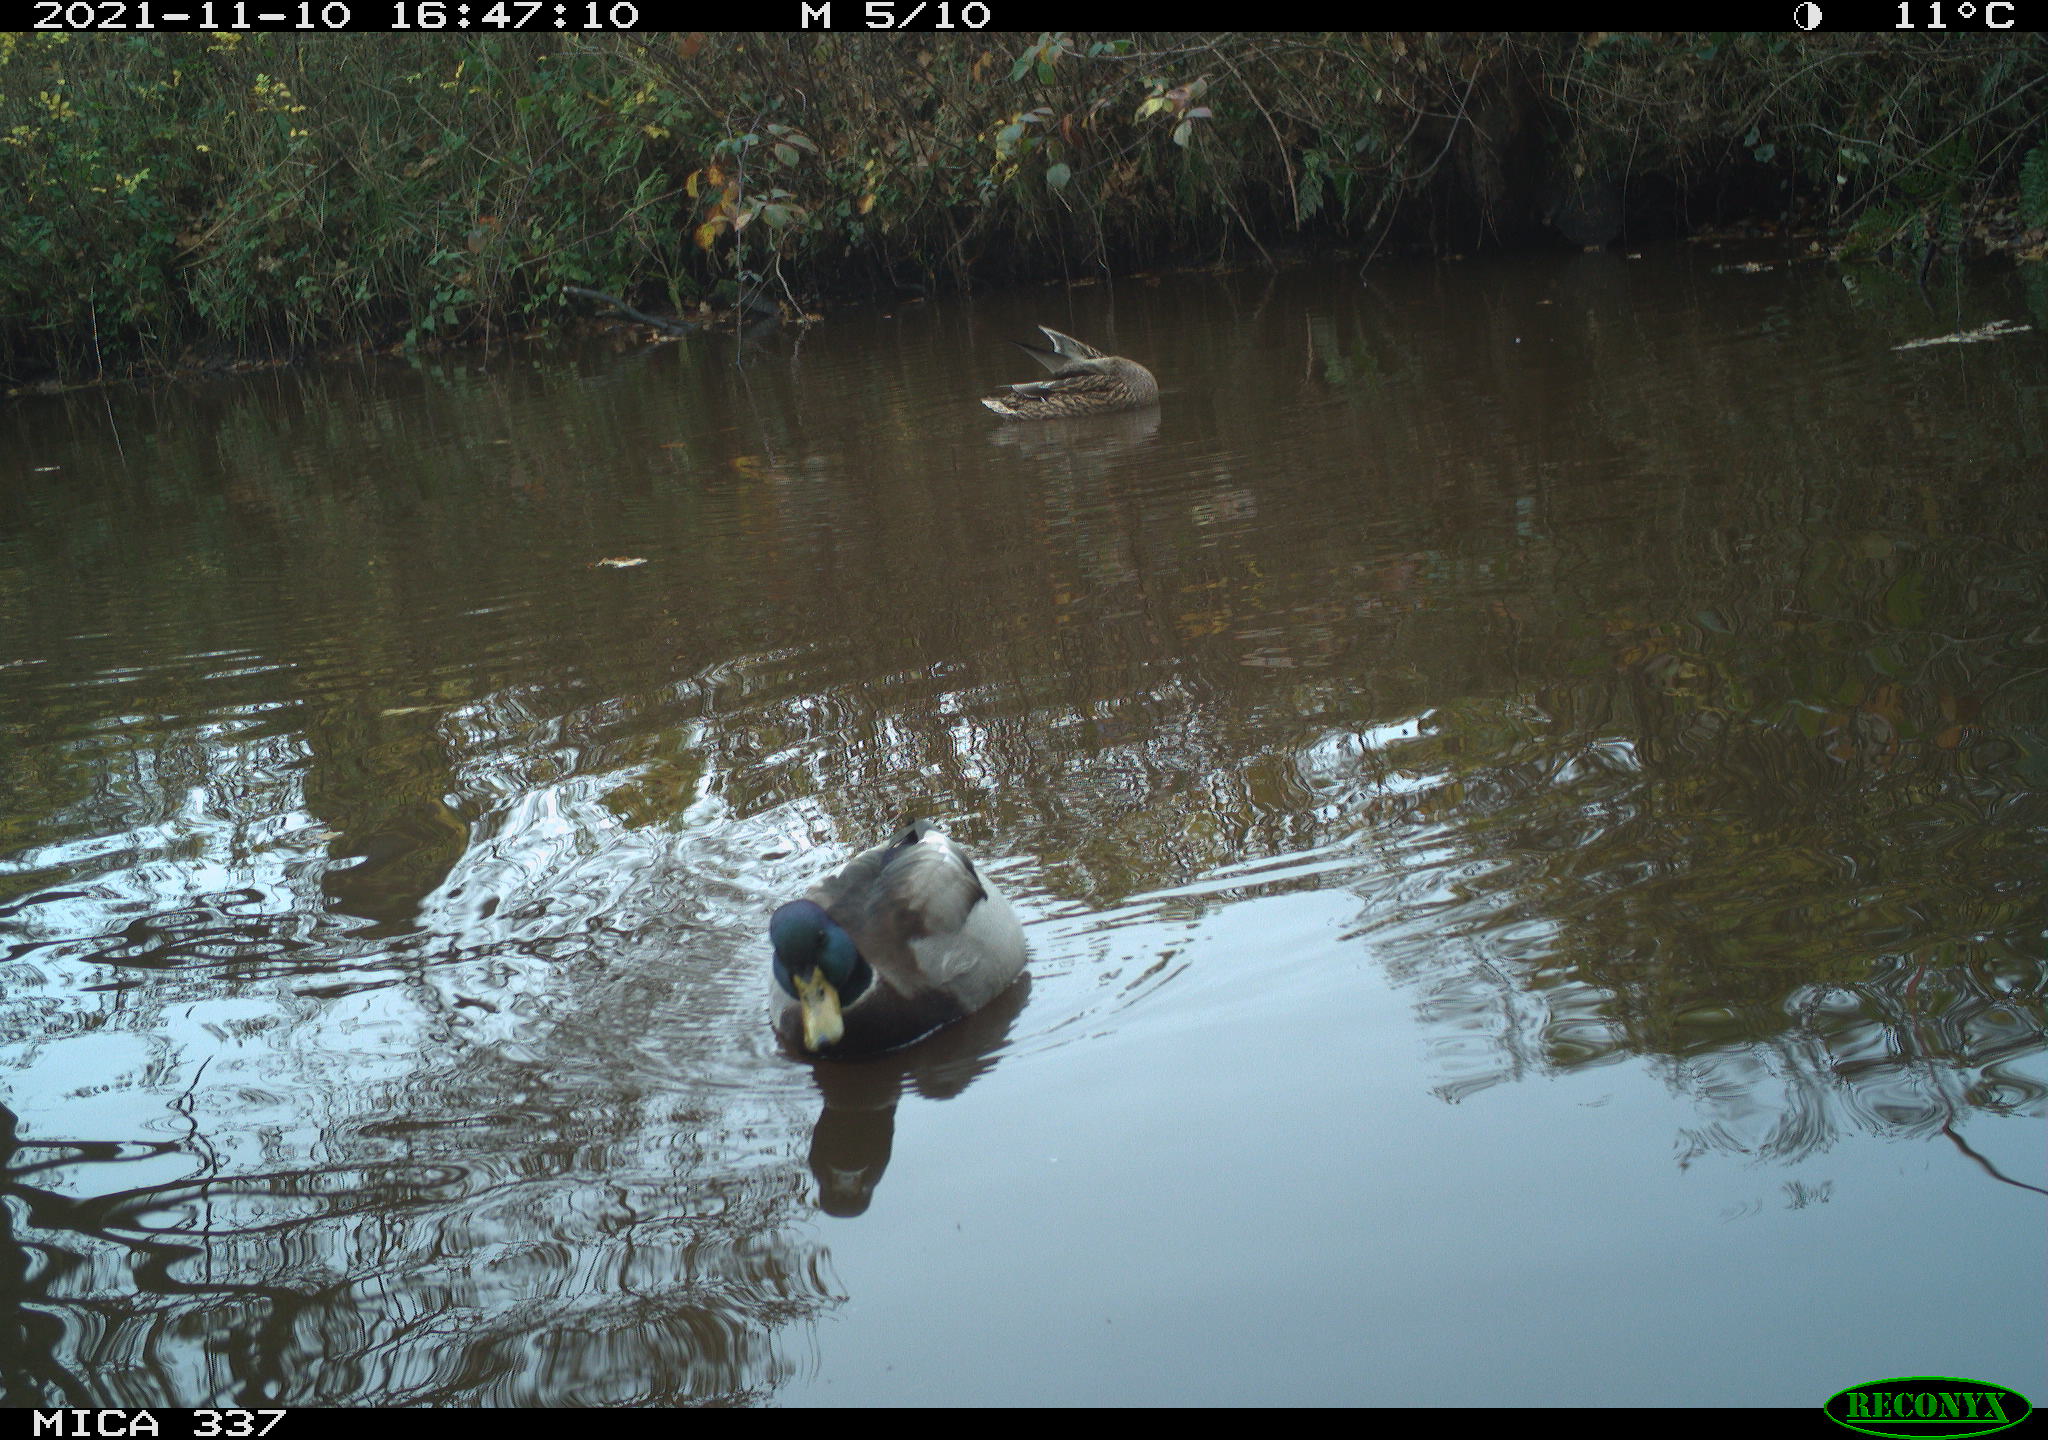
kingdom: Animalia
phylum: Chordata
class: Aves
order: Anseriformes
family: Anatidae
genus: Anas
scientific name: Anas platyrhynchos
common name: Mallard
